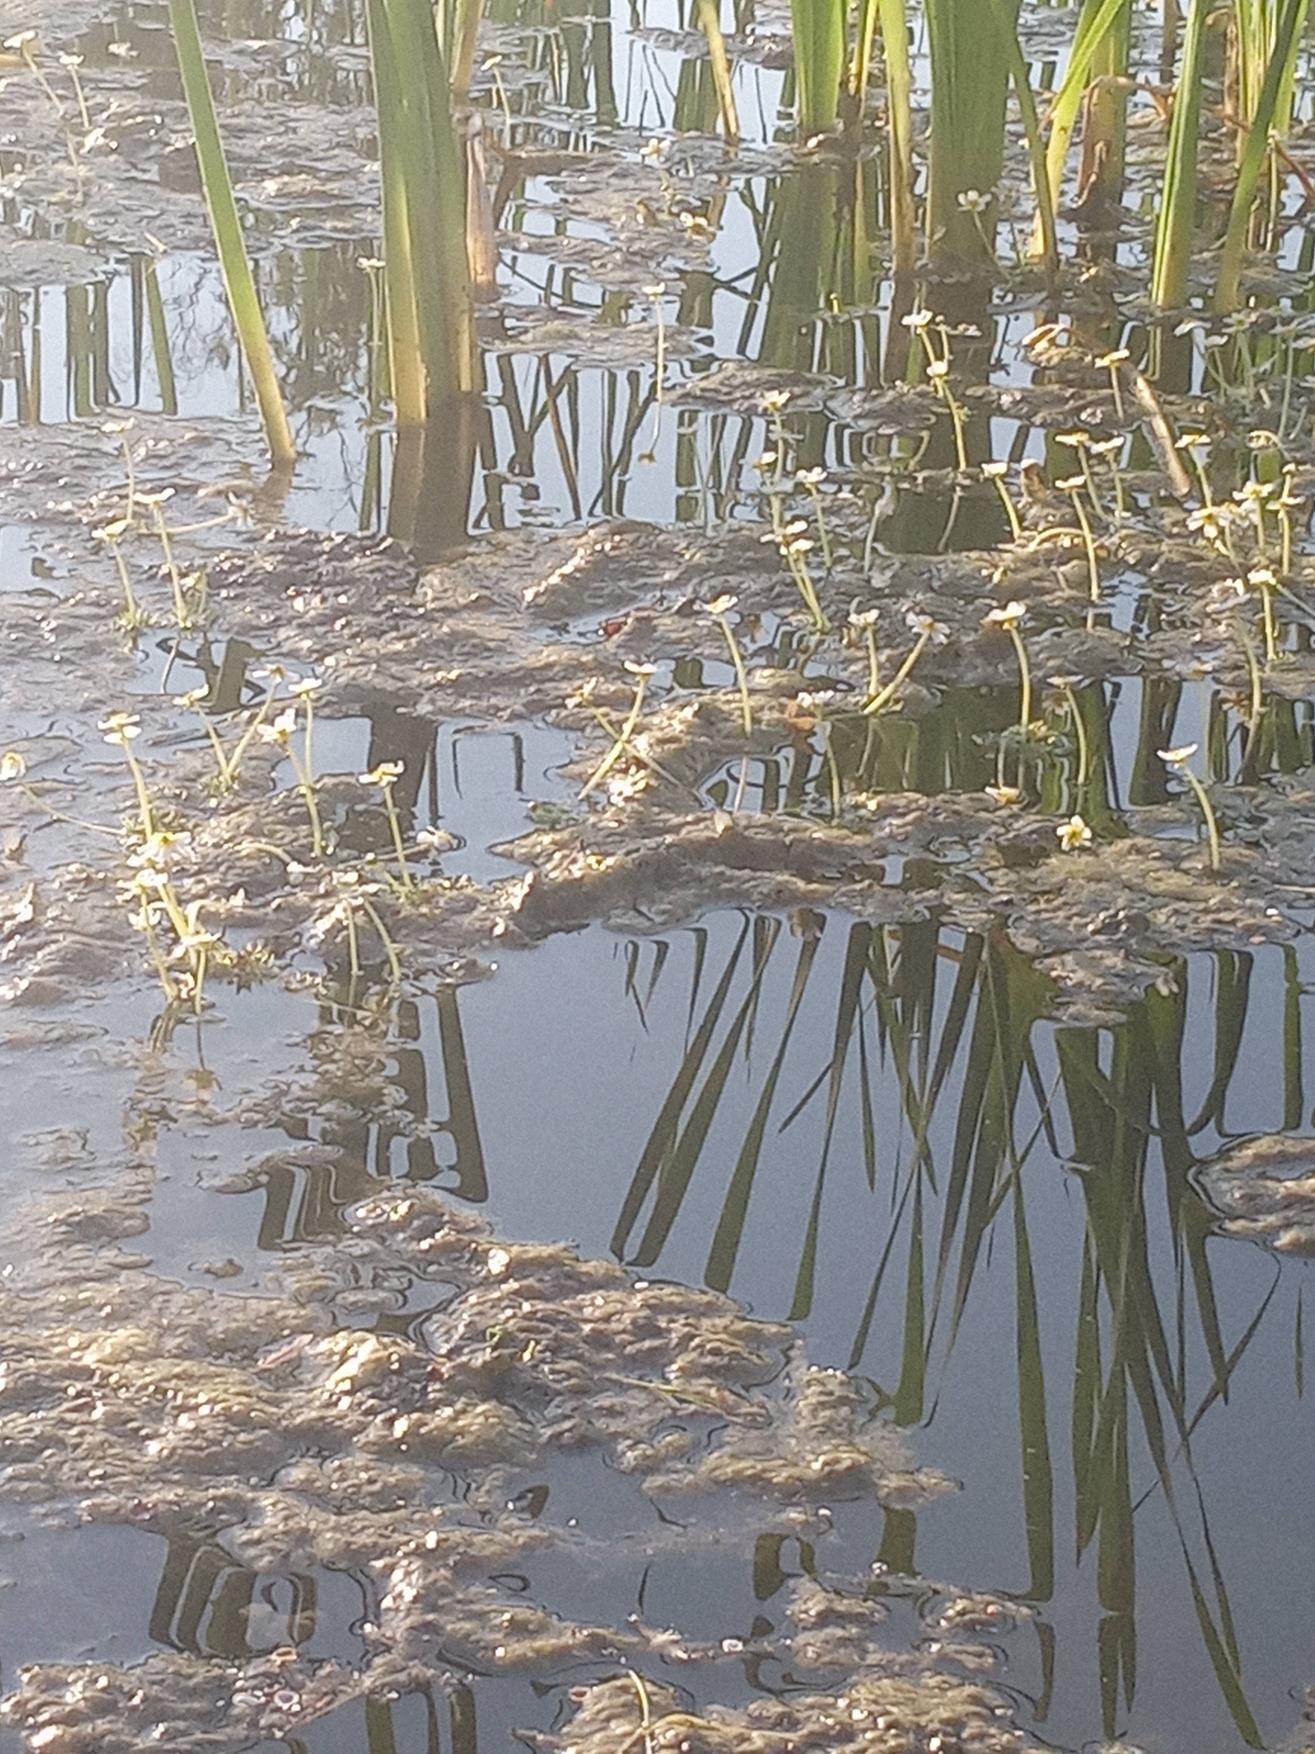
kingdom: Plantae
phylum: Tracheophyta
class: Magnoliopsida
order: Ranunculales
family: Ranunculaceae
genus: Ranunculus
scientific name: Ranunculus
